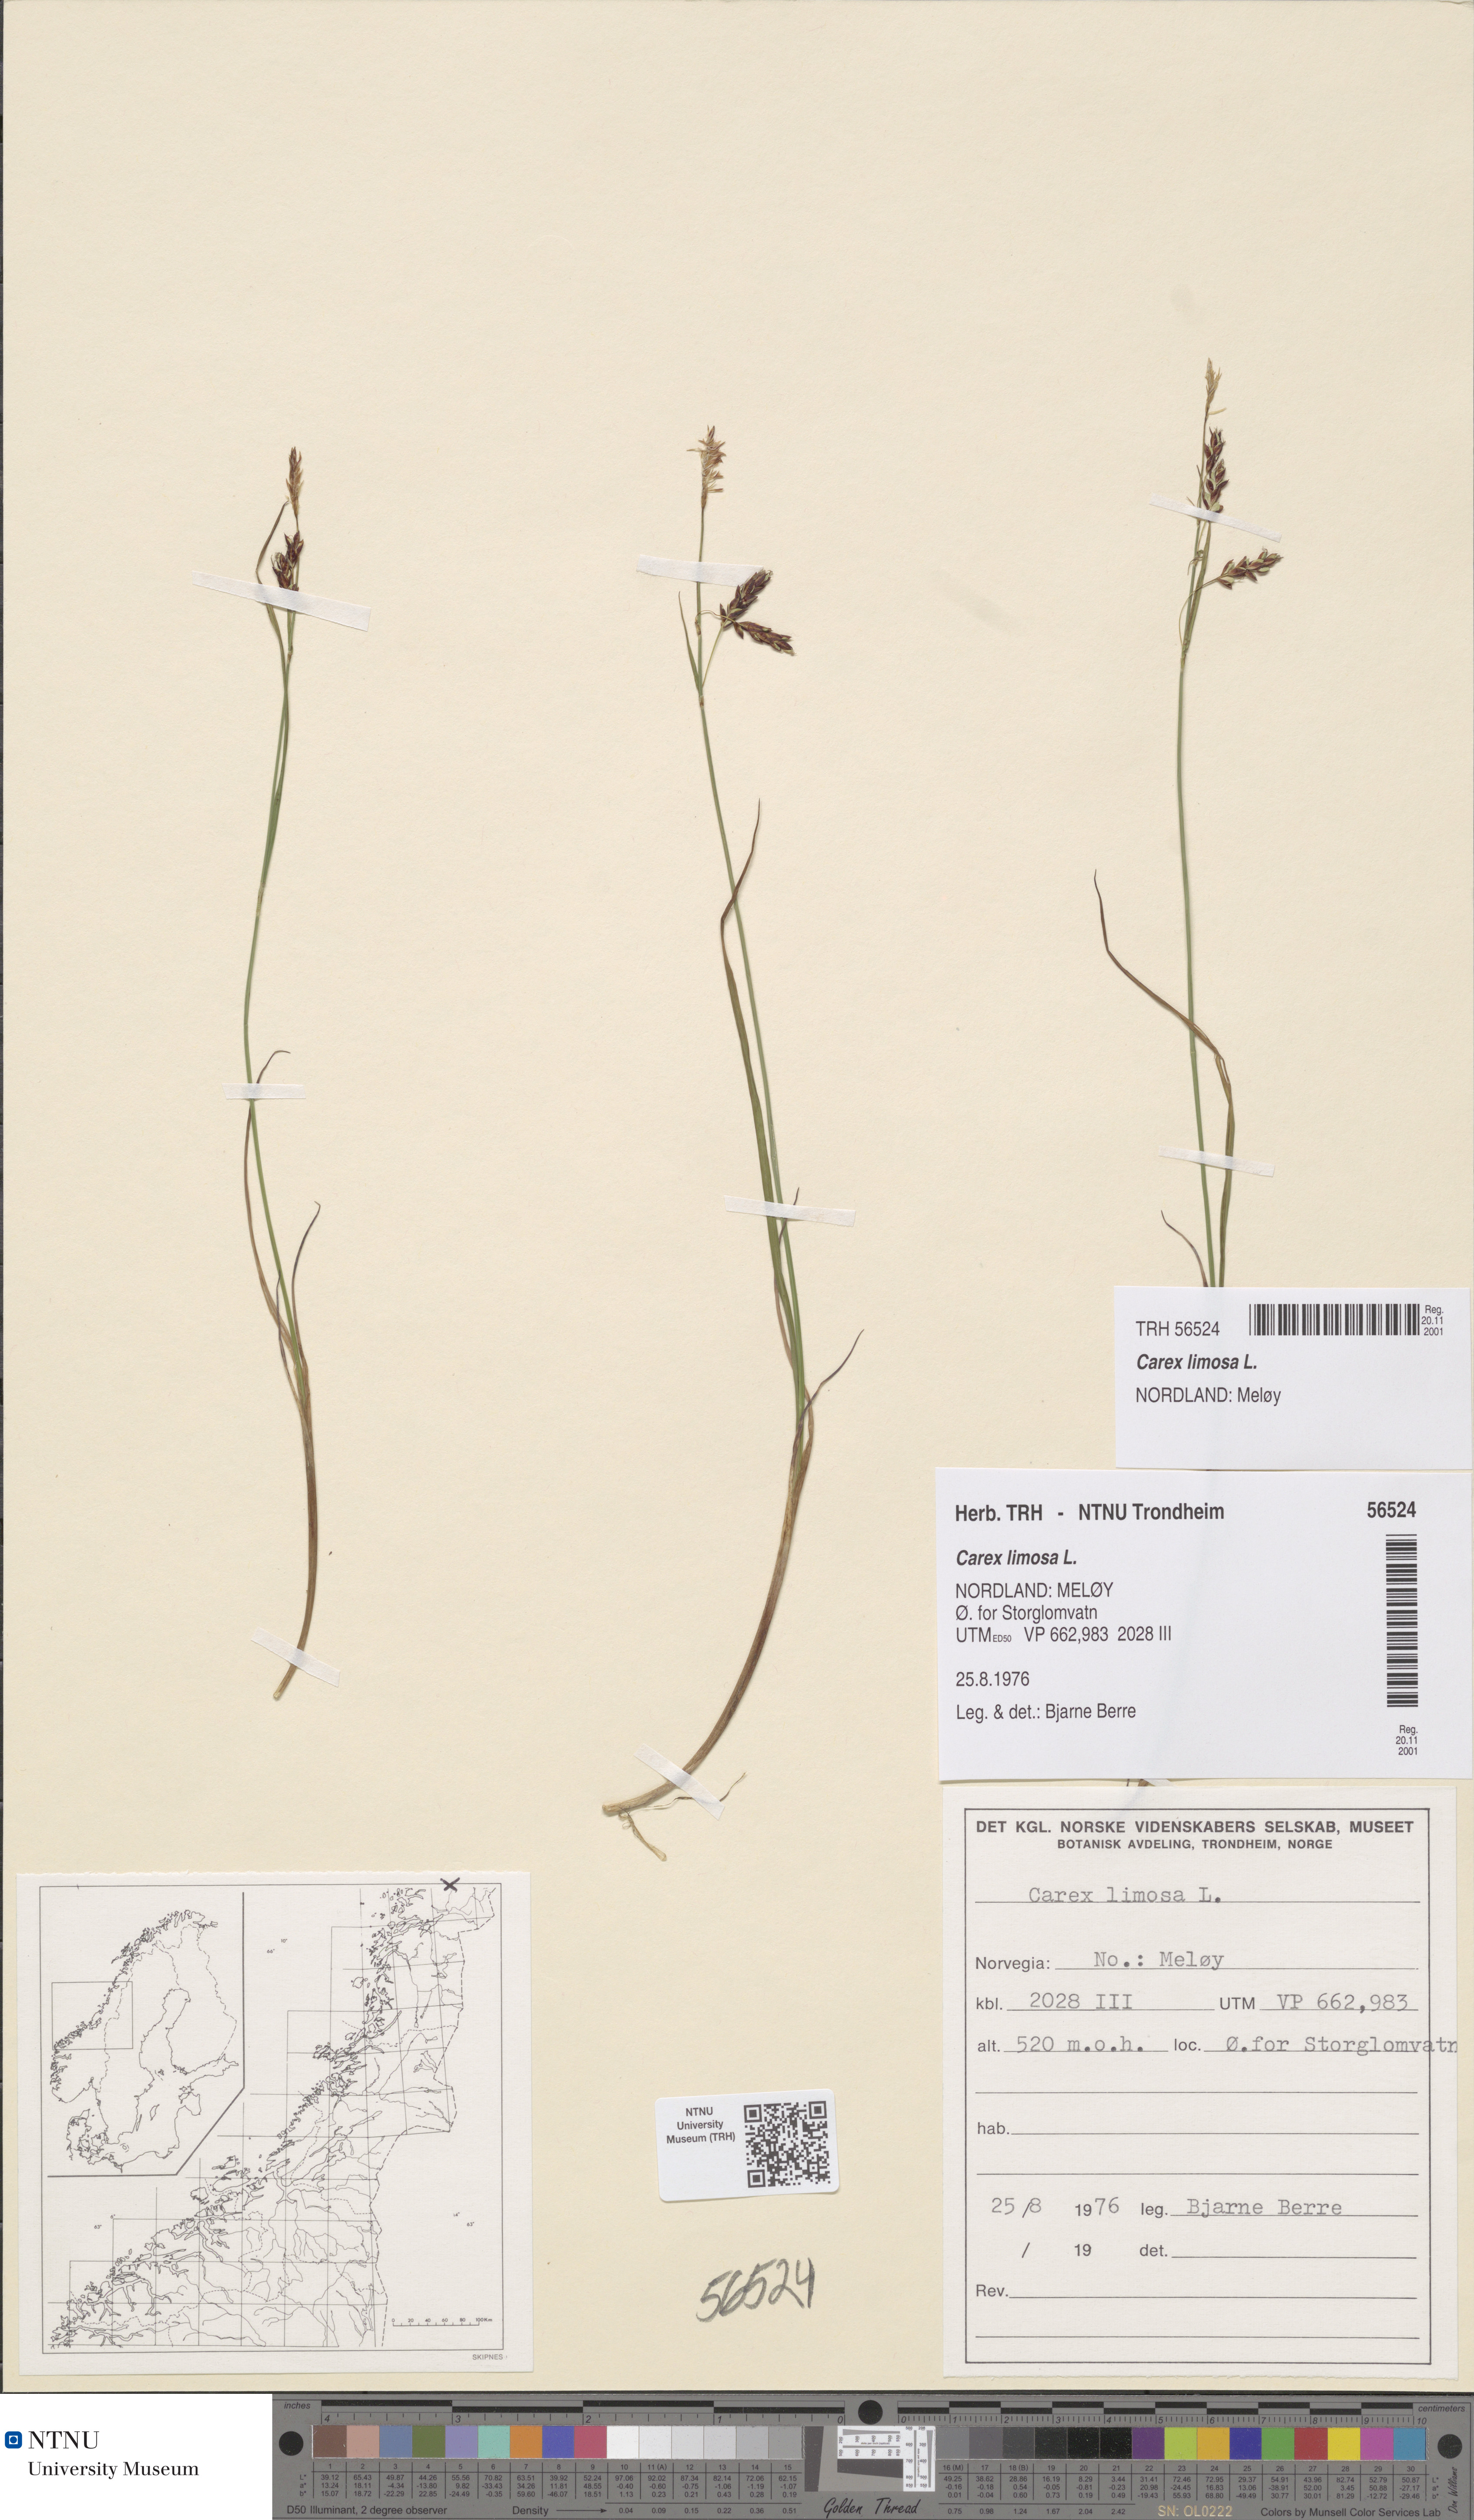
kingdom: Plantae
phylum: Tracheophyta
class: Liliopsida
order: Poales
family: Cyperaceae
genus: Carex
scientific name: Carex limosa
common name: Bog sedge
